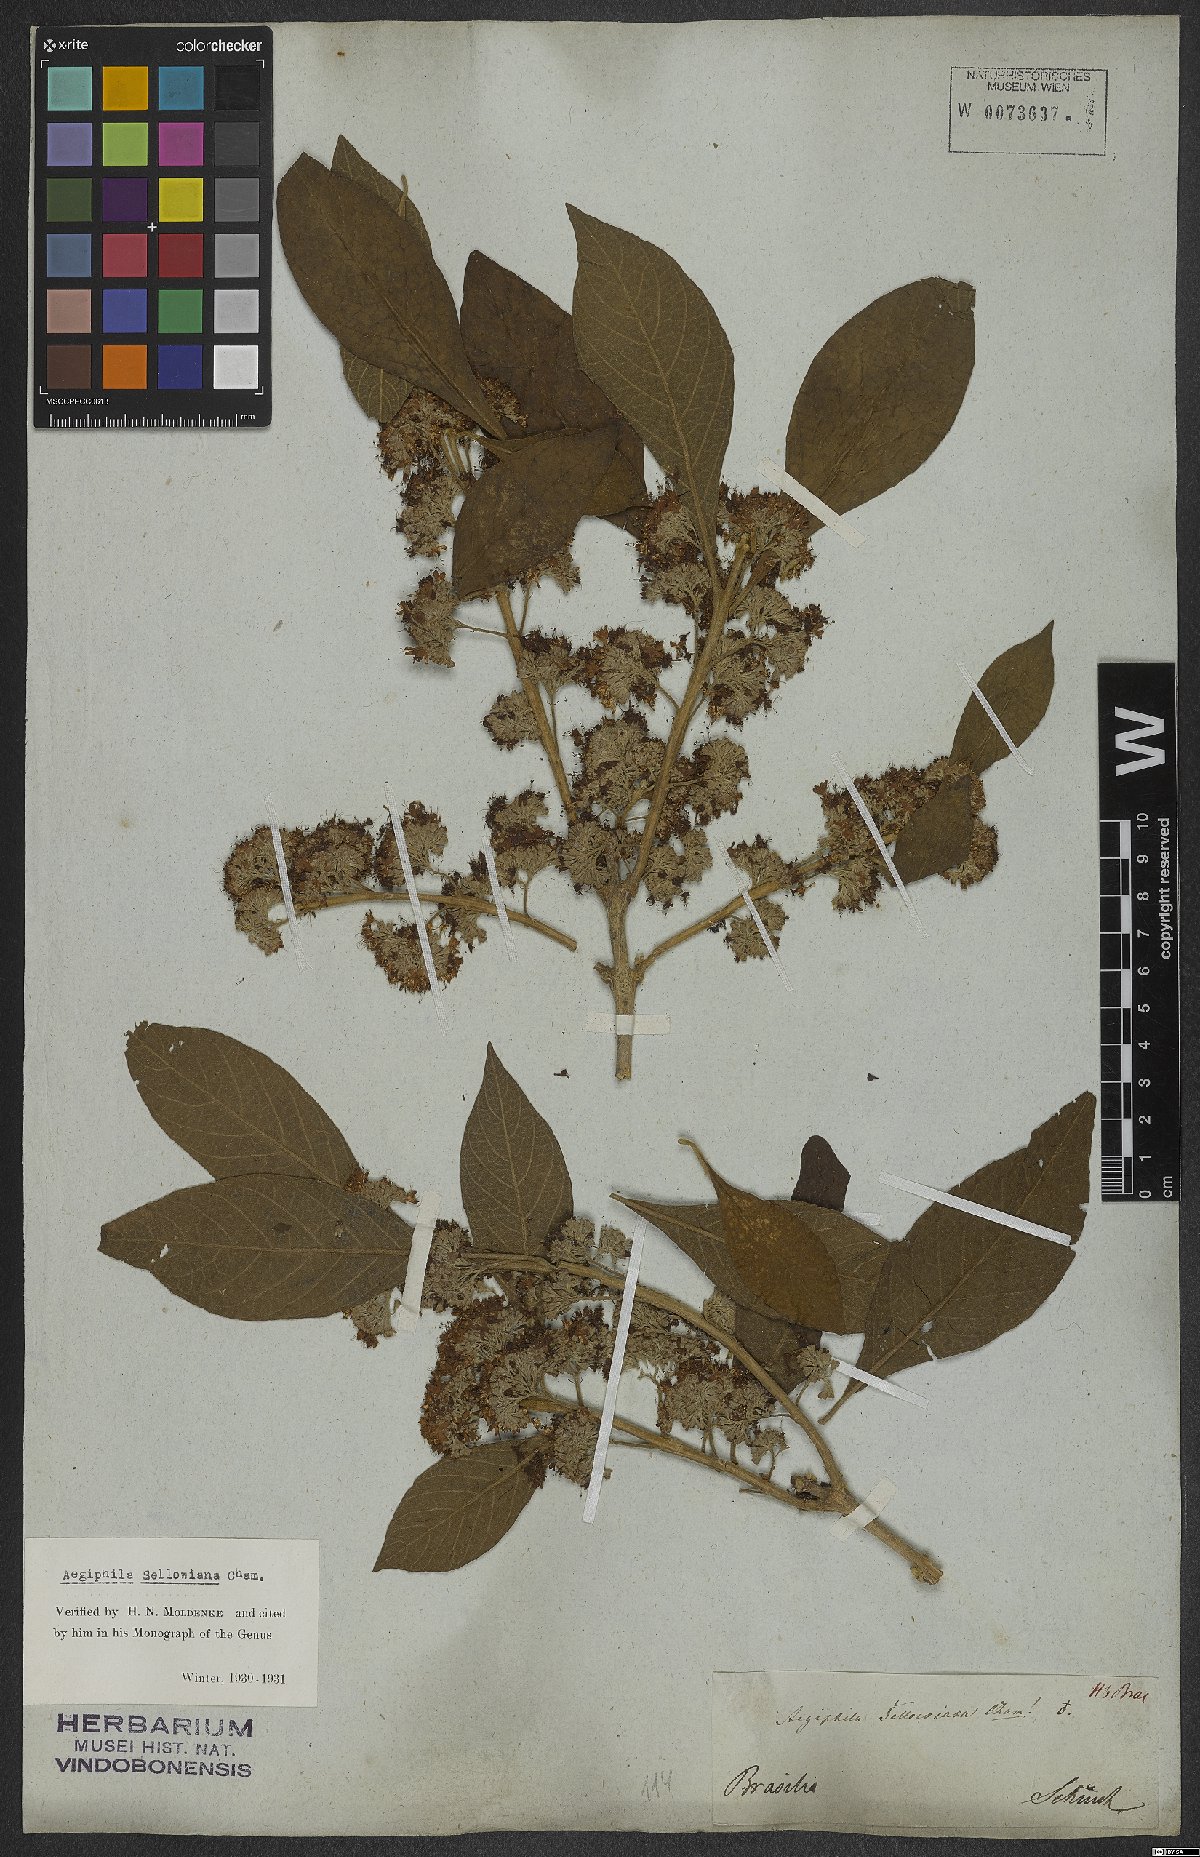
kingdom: Plantae
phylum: Tracheophyta
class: Magnoliopsida
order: Lamiales
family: Lamiaceae
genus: Aegiphila
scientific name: Aegiphila verticillata
